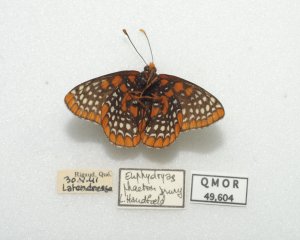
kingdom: Animalia
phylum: Arthropoda
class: Insecta
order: Lepidoptera
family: Nymphalidae
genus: Euphydryas
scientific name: Euphydryas phaeton
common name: Baltimore Checkerspot
